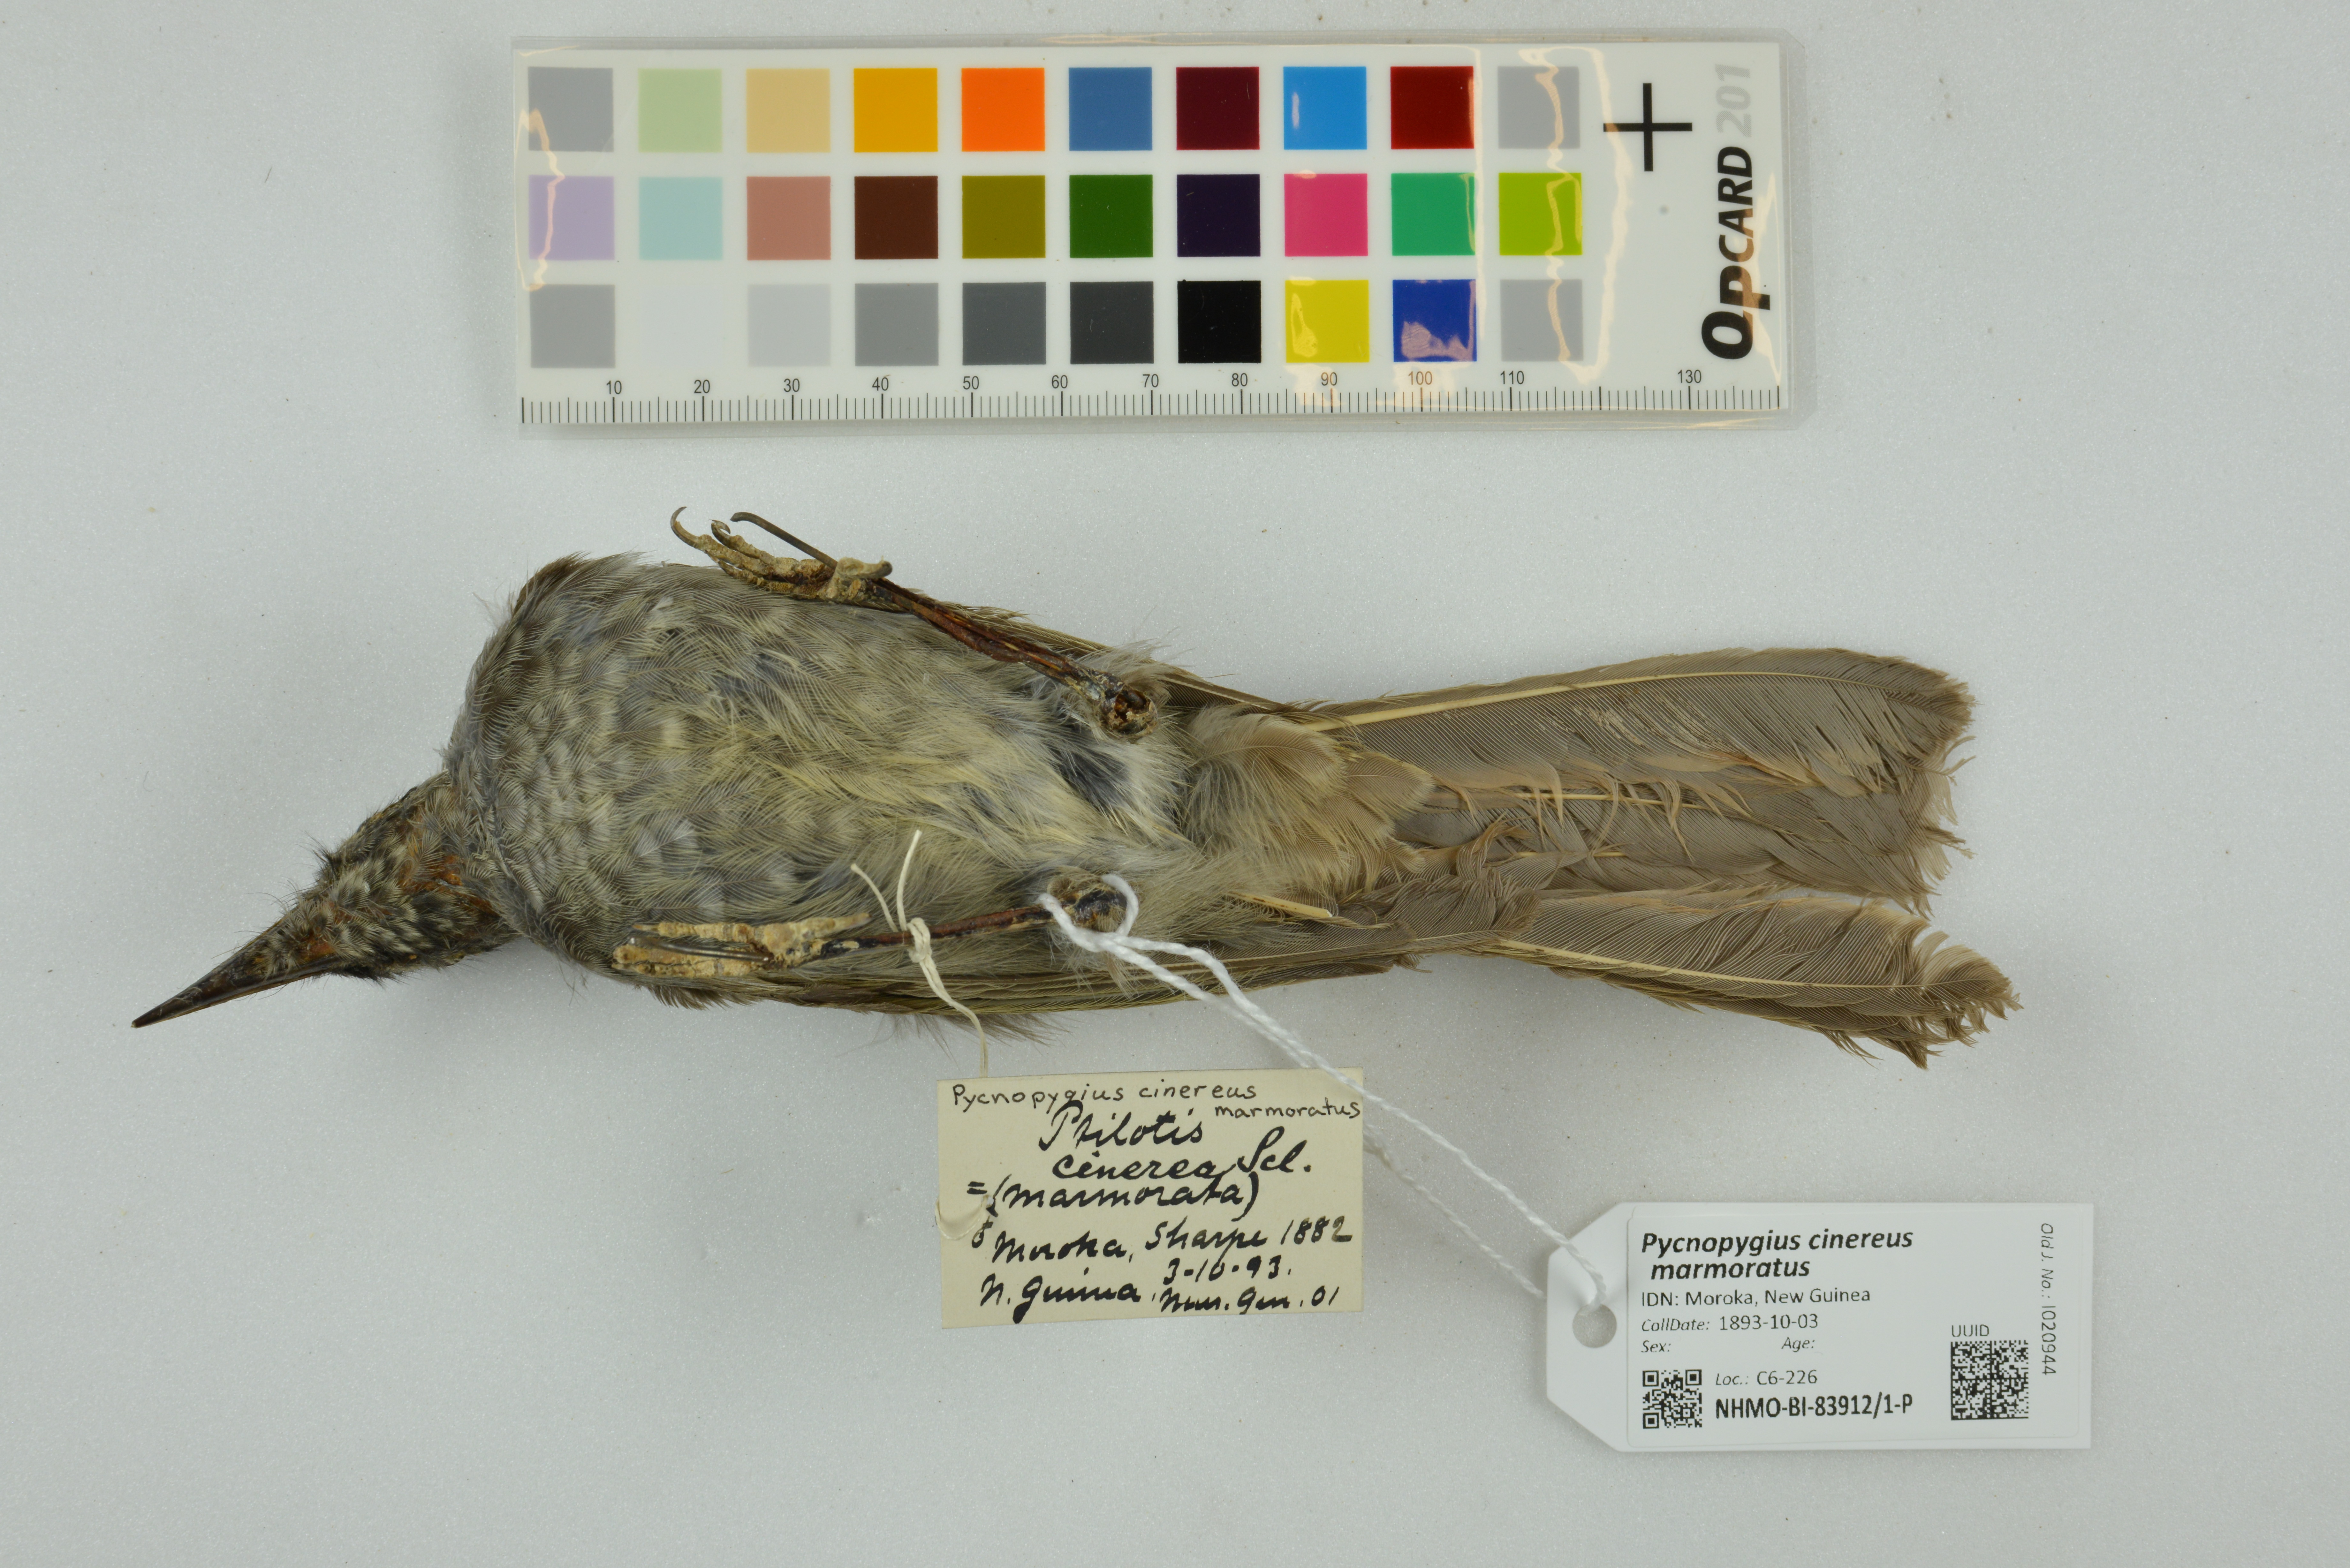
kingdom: Animalia
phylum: Chordata
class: Aves
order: Passeriformes
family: Meliphagidae
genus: Pycnopygius
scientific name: Pycnopygius cinereus
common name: Marbled honeyeater
